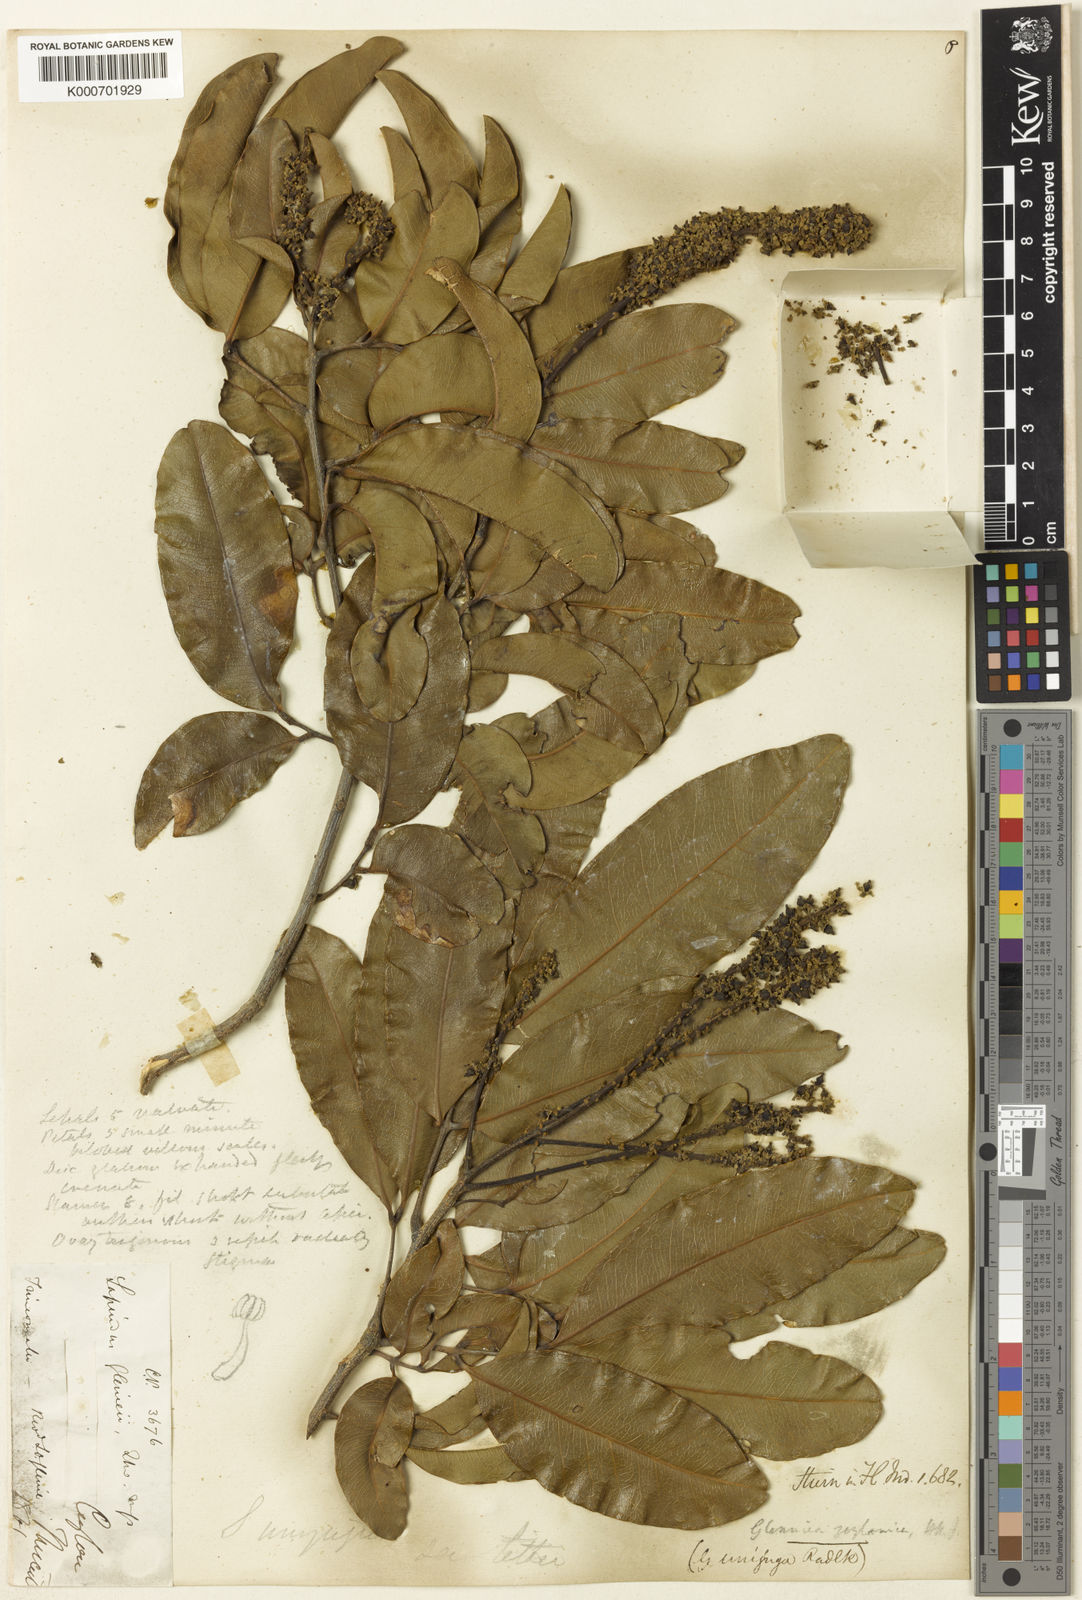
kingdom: Plantae
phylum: Tracheophyta
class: Magnoliopsida
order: Sapindales
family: Sapindaceae
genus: Glenniea
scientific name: Glenniea unijuga
